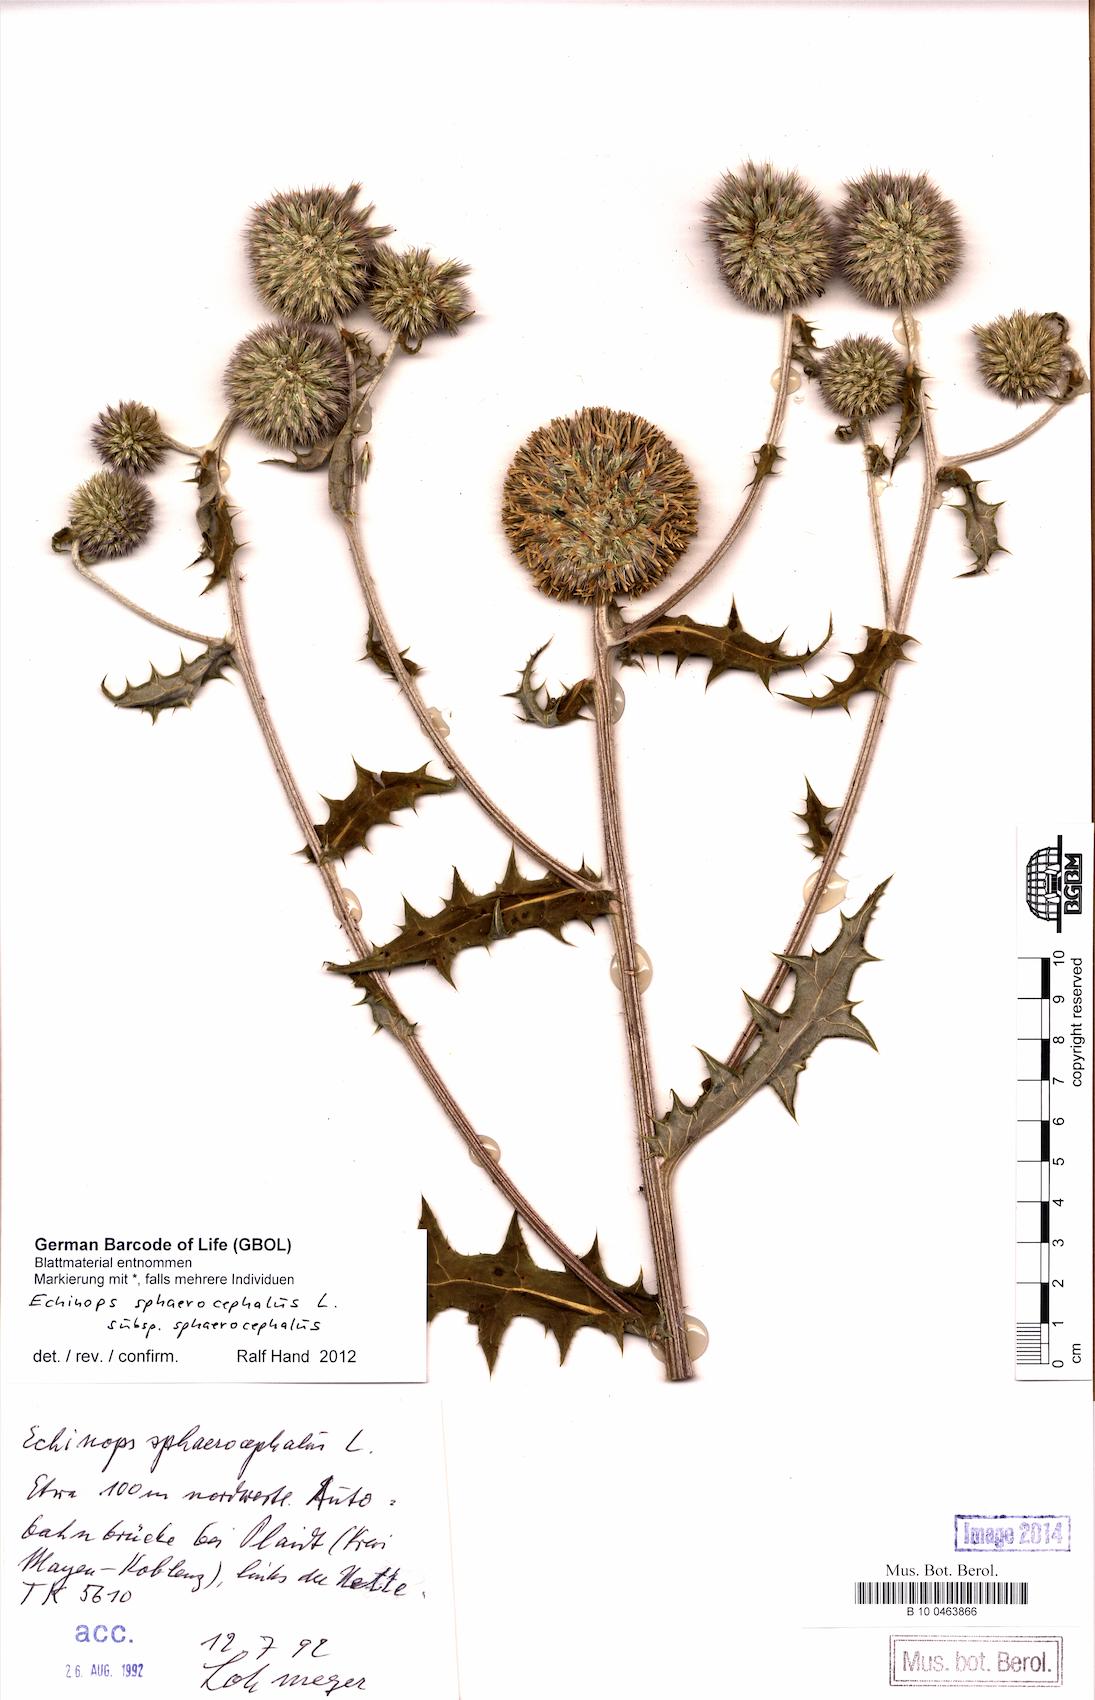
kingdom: Plantae
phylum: Tracheophyta
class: Magnoliopsida
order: Asterales
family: Asteraceae
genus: Echinops
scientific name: Echinops sphaerocephalus
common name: Glandular globe-thistle
